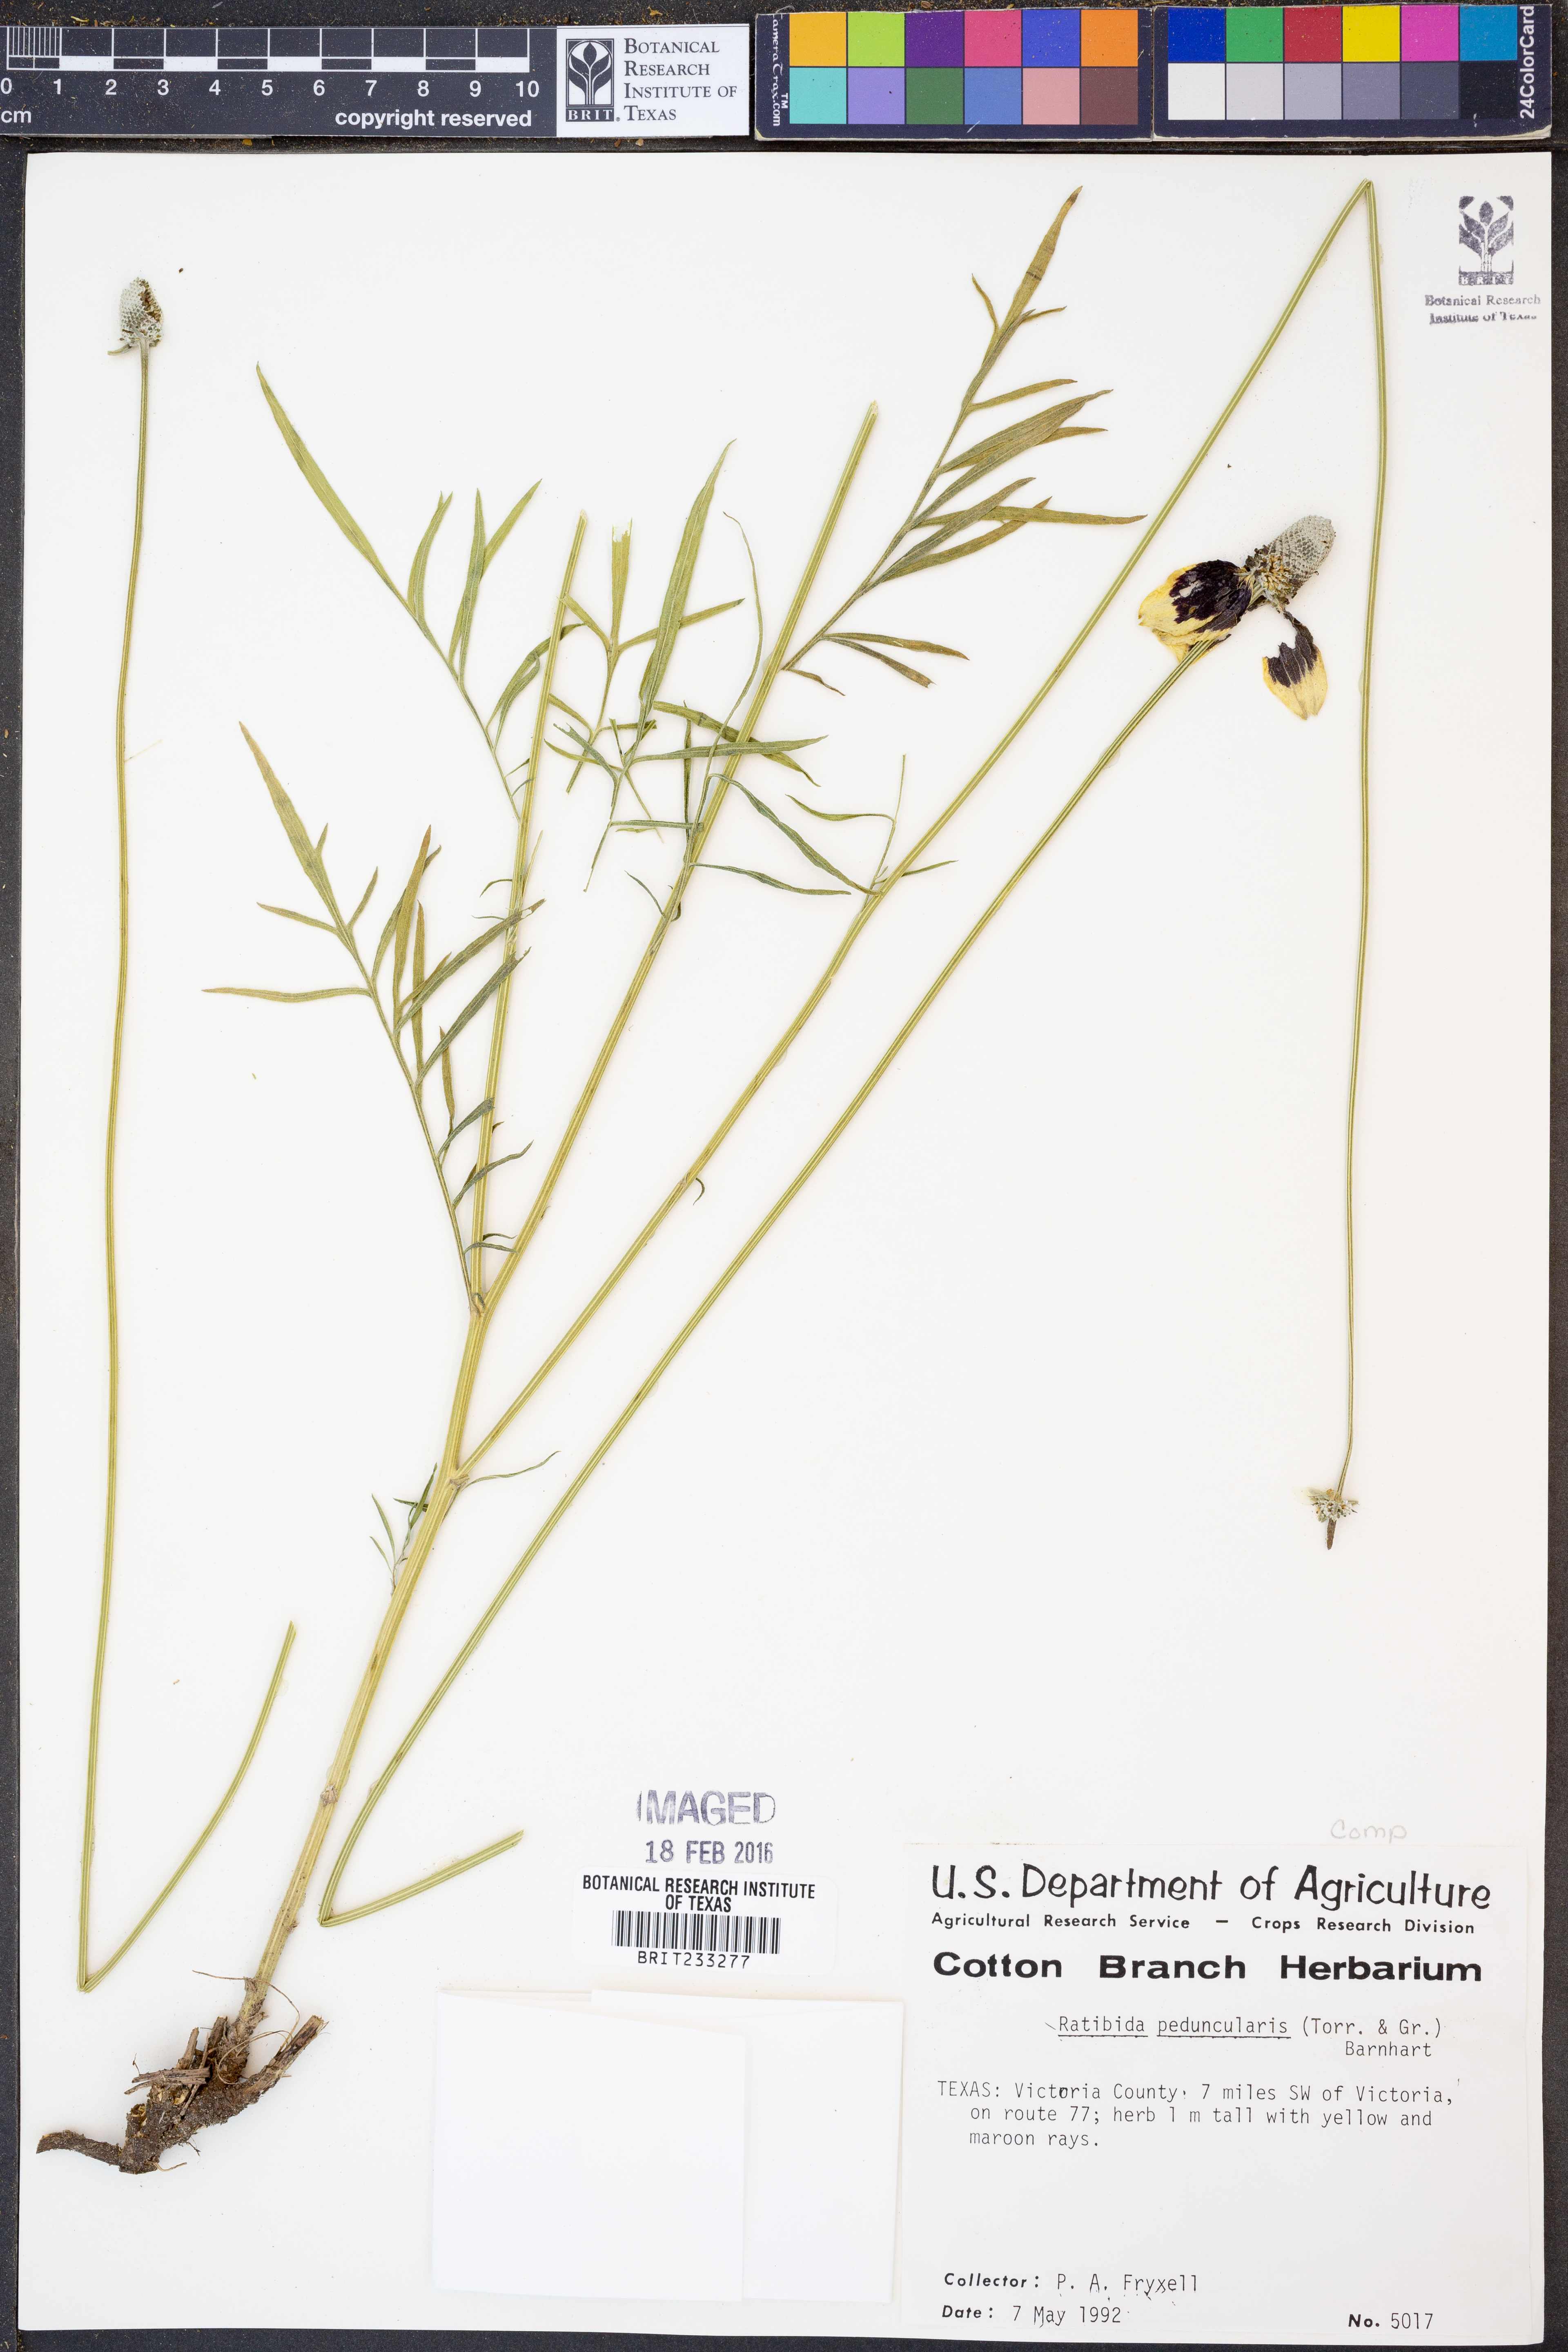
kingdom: Plantae
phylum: Tracheophyta
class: Magnoliopsida
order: Asterales
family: Asteraceae
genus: Ratibida
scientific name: Ratibida peduncularis
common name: Naked prairie-coneflower
